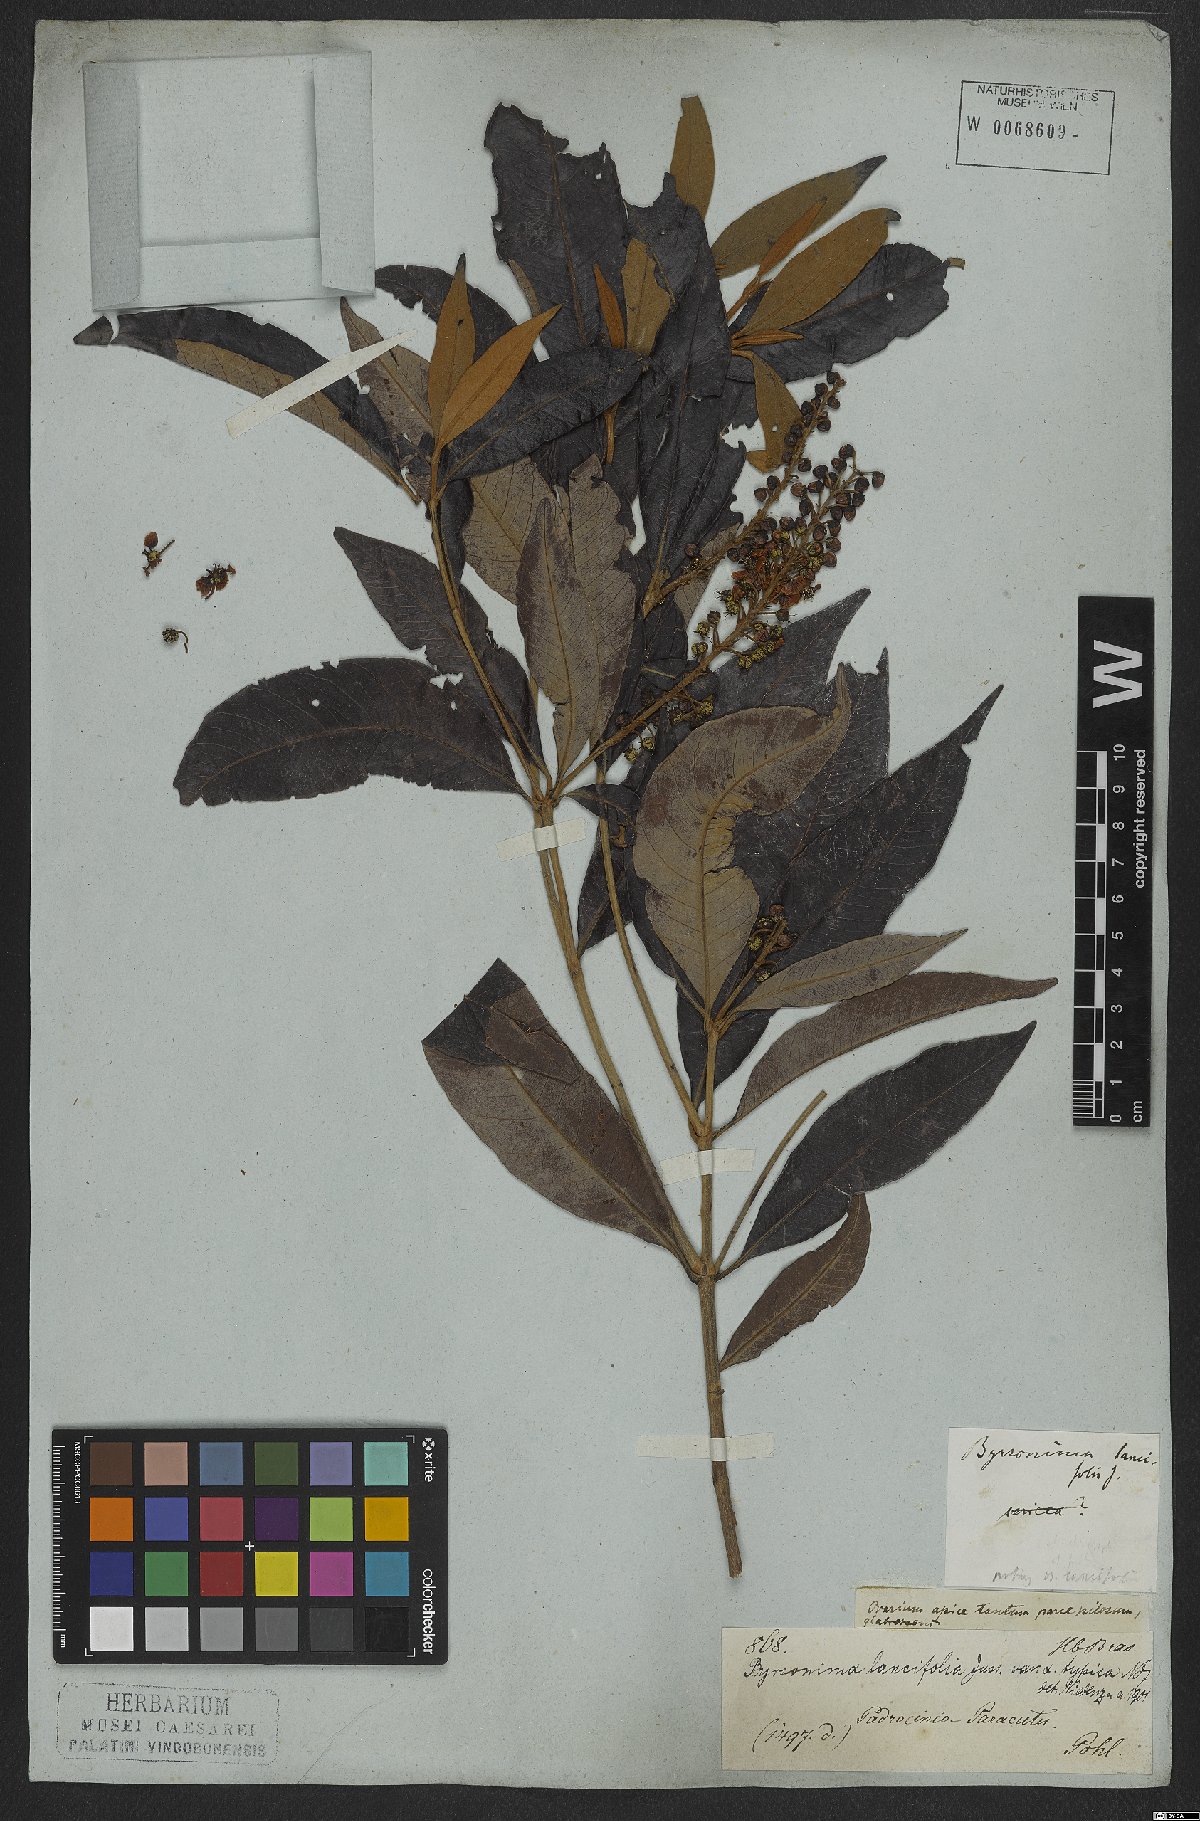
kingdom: Plantae
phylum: Tracheophyta
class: Magnoliopsida
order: Malpighiales
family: Malpighiaceae
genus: Byrsonima
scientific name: Byrsonima lancifolia
